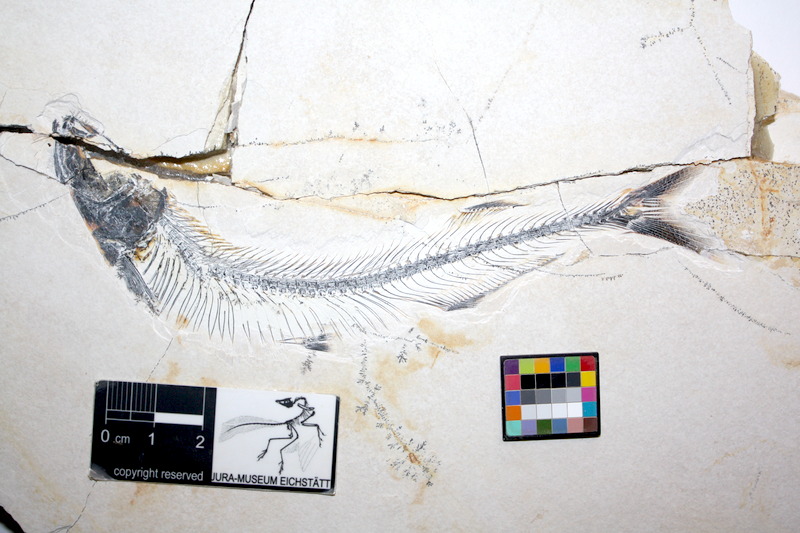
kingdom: Animalia
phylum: Chordata
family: Allothrissopidae
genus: Allothrissops
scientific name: Allothrissops mesogaster
